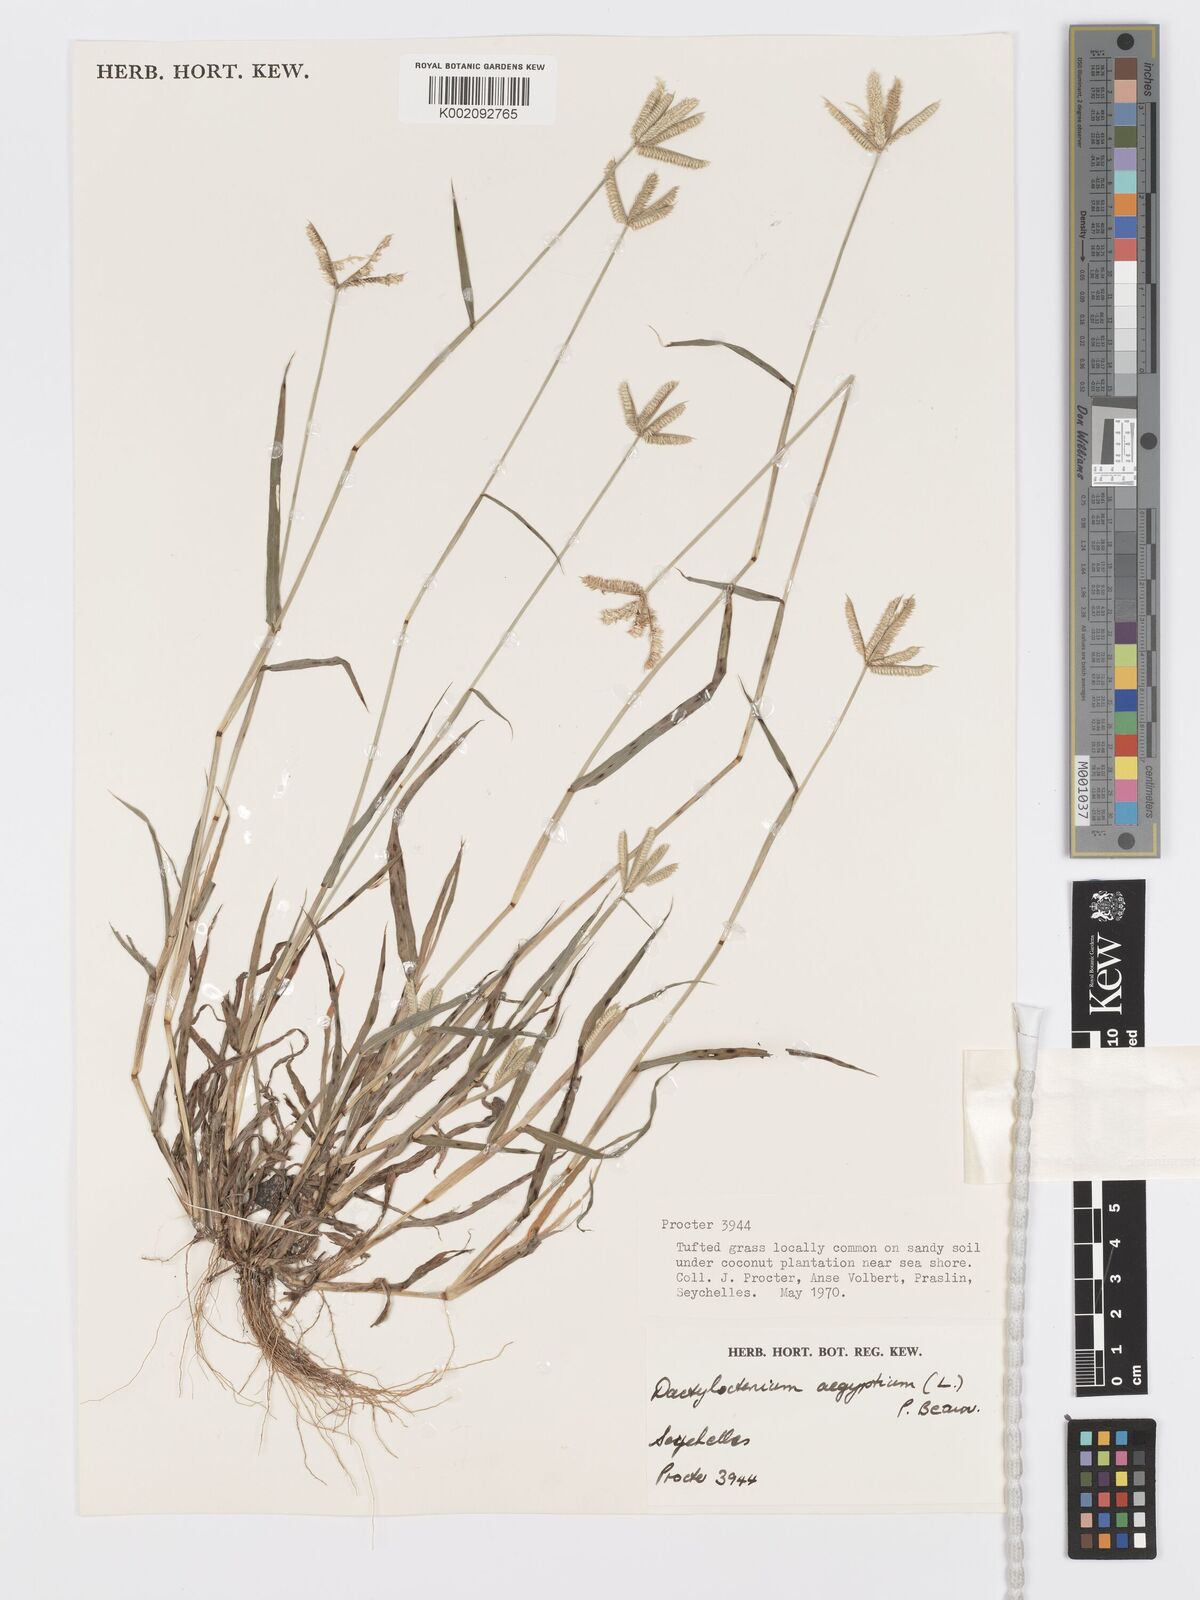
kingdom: Plantae
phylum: Tracheophyta
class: Liliopsida
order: Poales
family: Poaceae
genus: Dactyloctenium
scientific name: Dactyloctenium ctenoides
